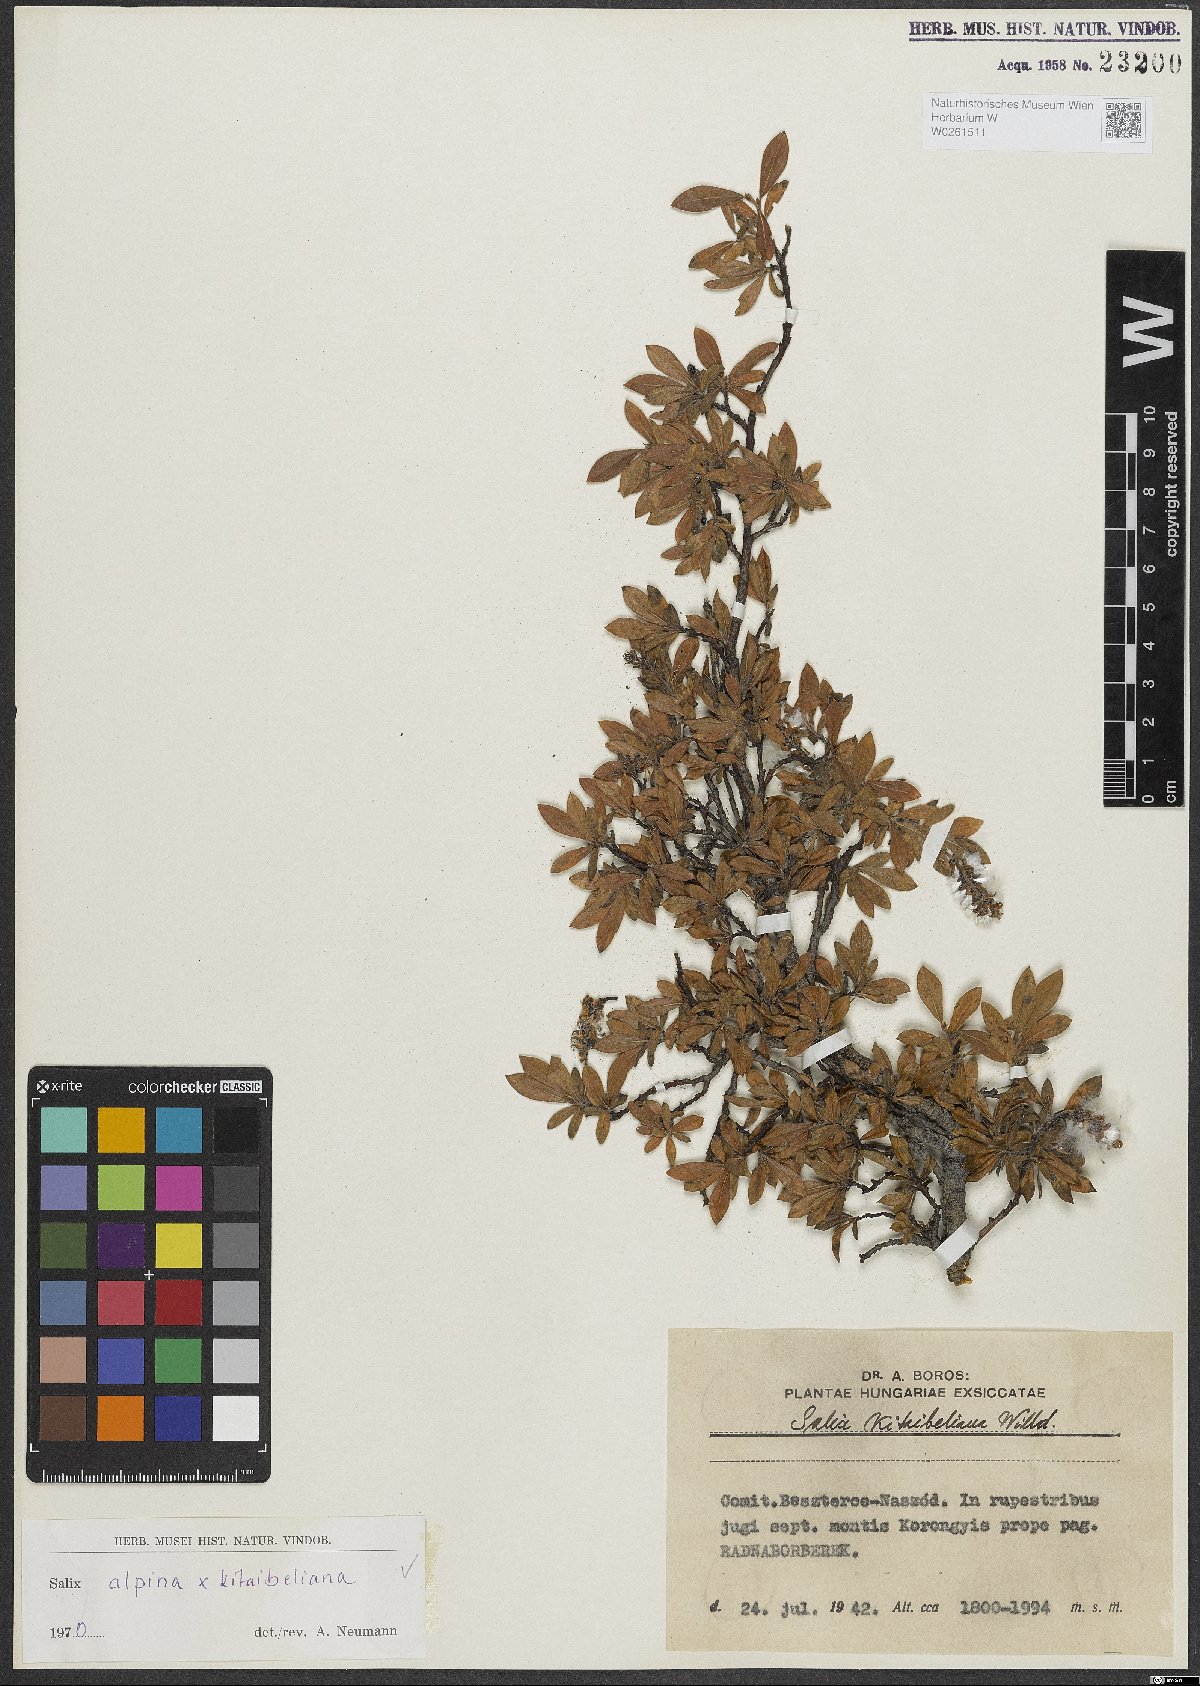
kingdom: Plantae
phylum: Tracheophyta
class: Magnoliopsida
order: Malpighiales
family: Salicaceae
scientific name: Salicaceae
